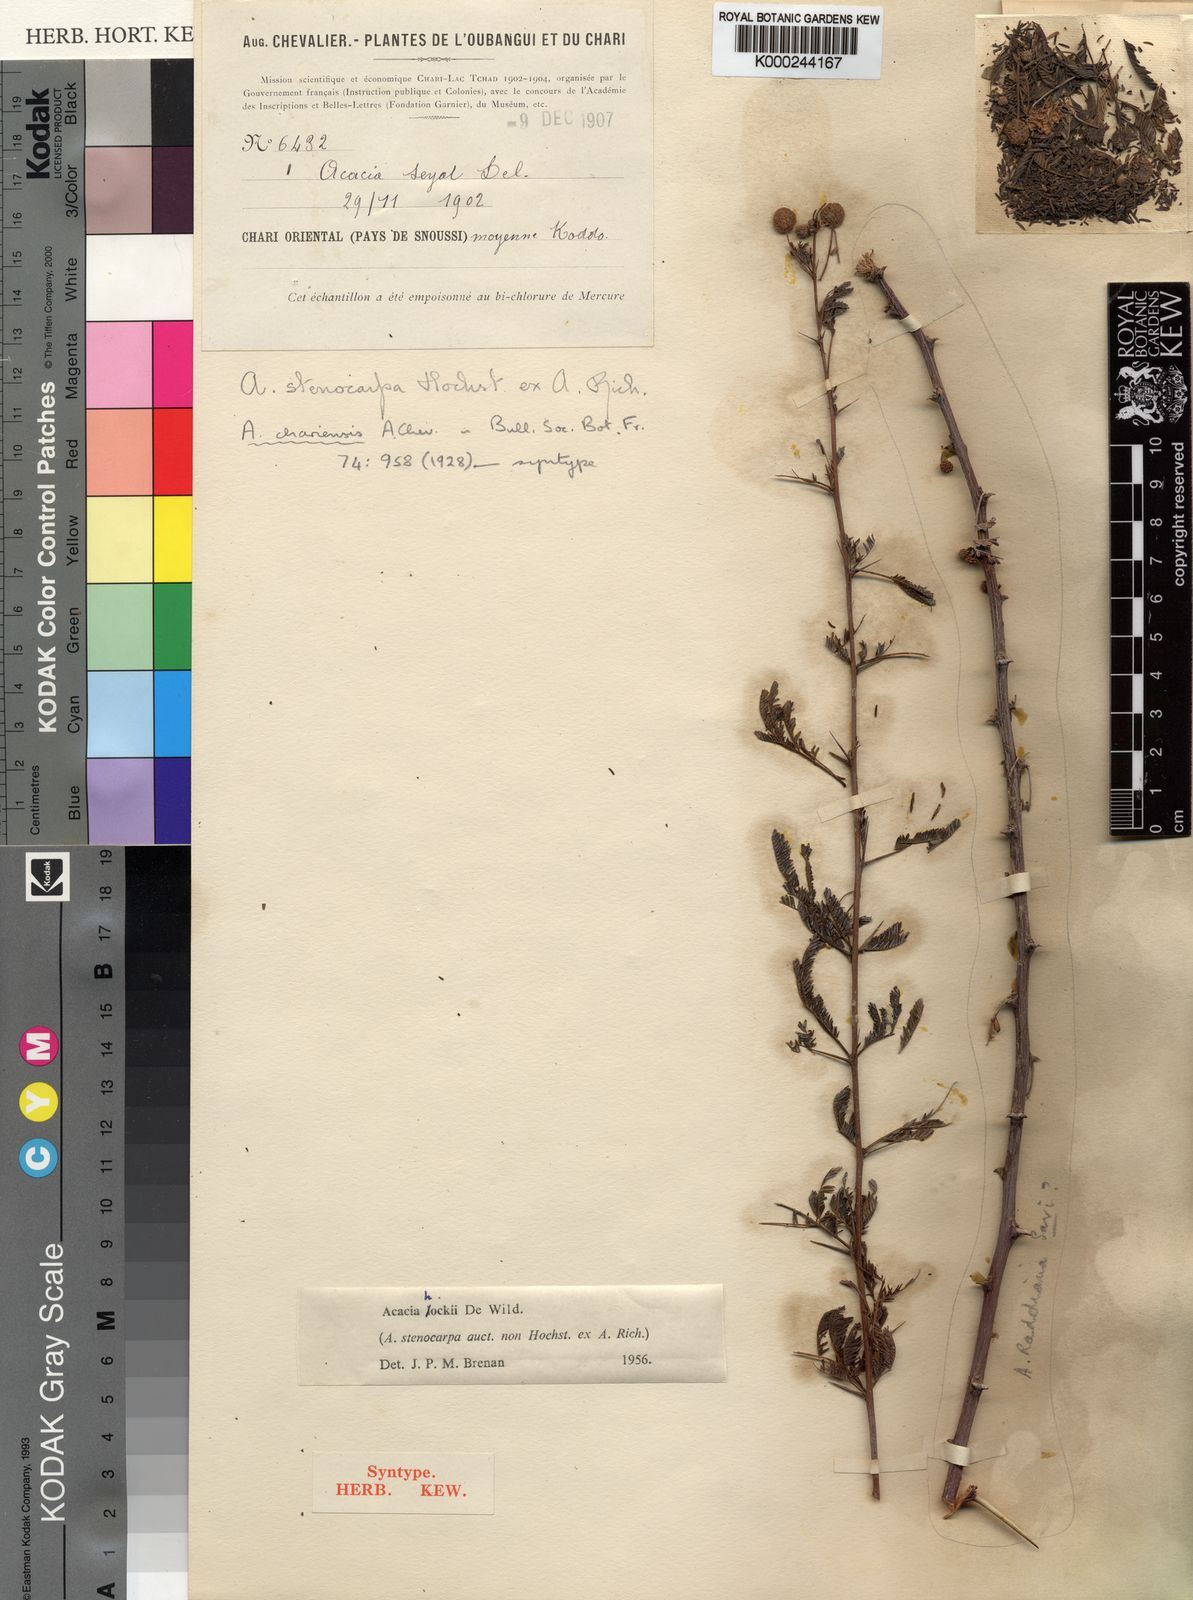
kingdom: Plantae
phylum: Tracheophyta
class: Magnoliopsida
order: Fabales
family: Fabaceae
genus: Vachellia
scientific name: Vachellia hockii
